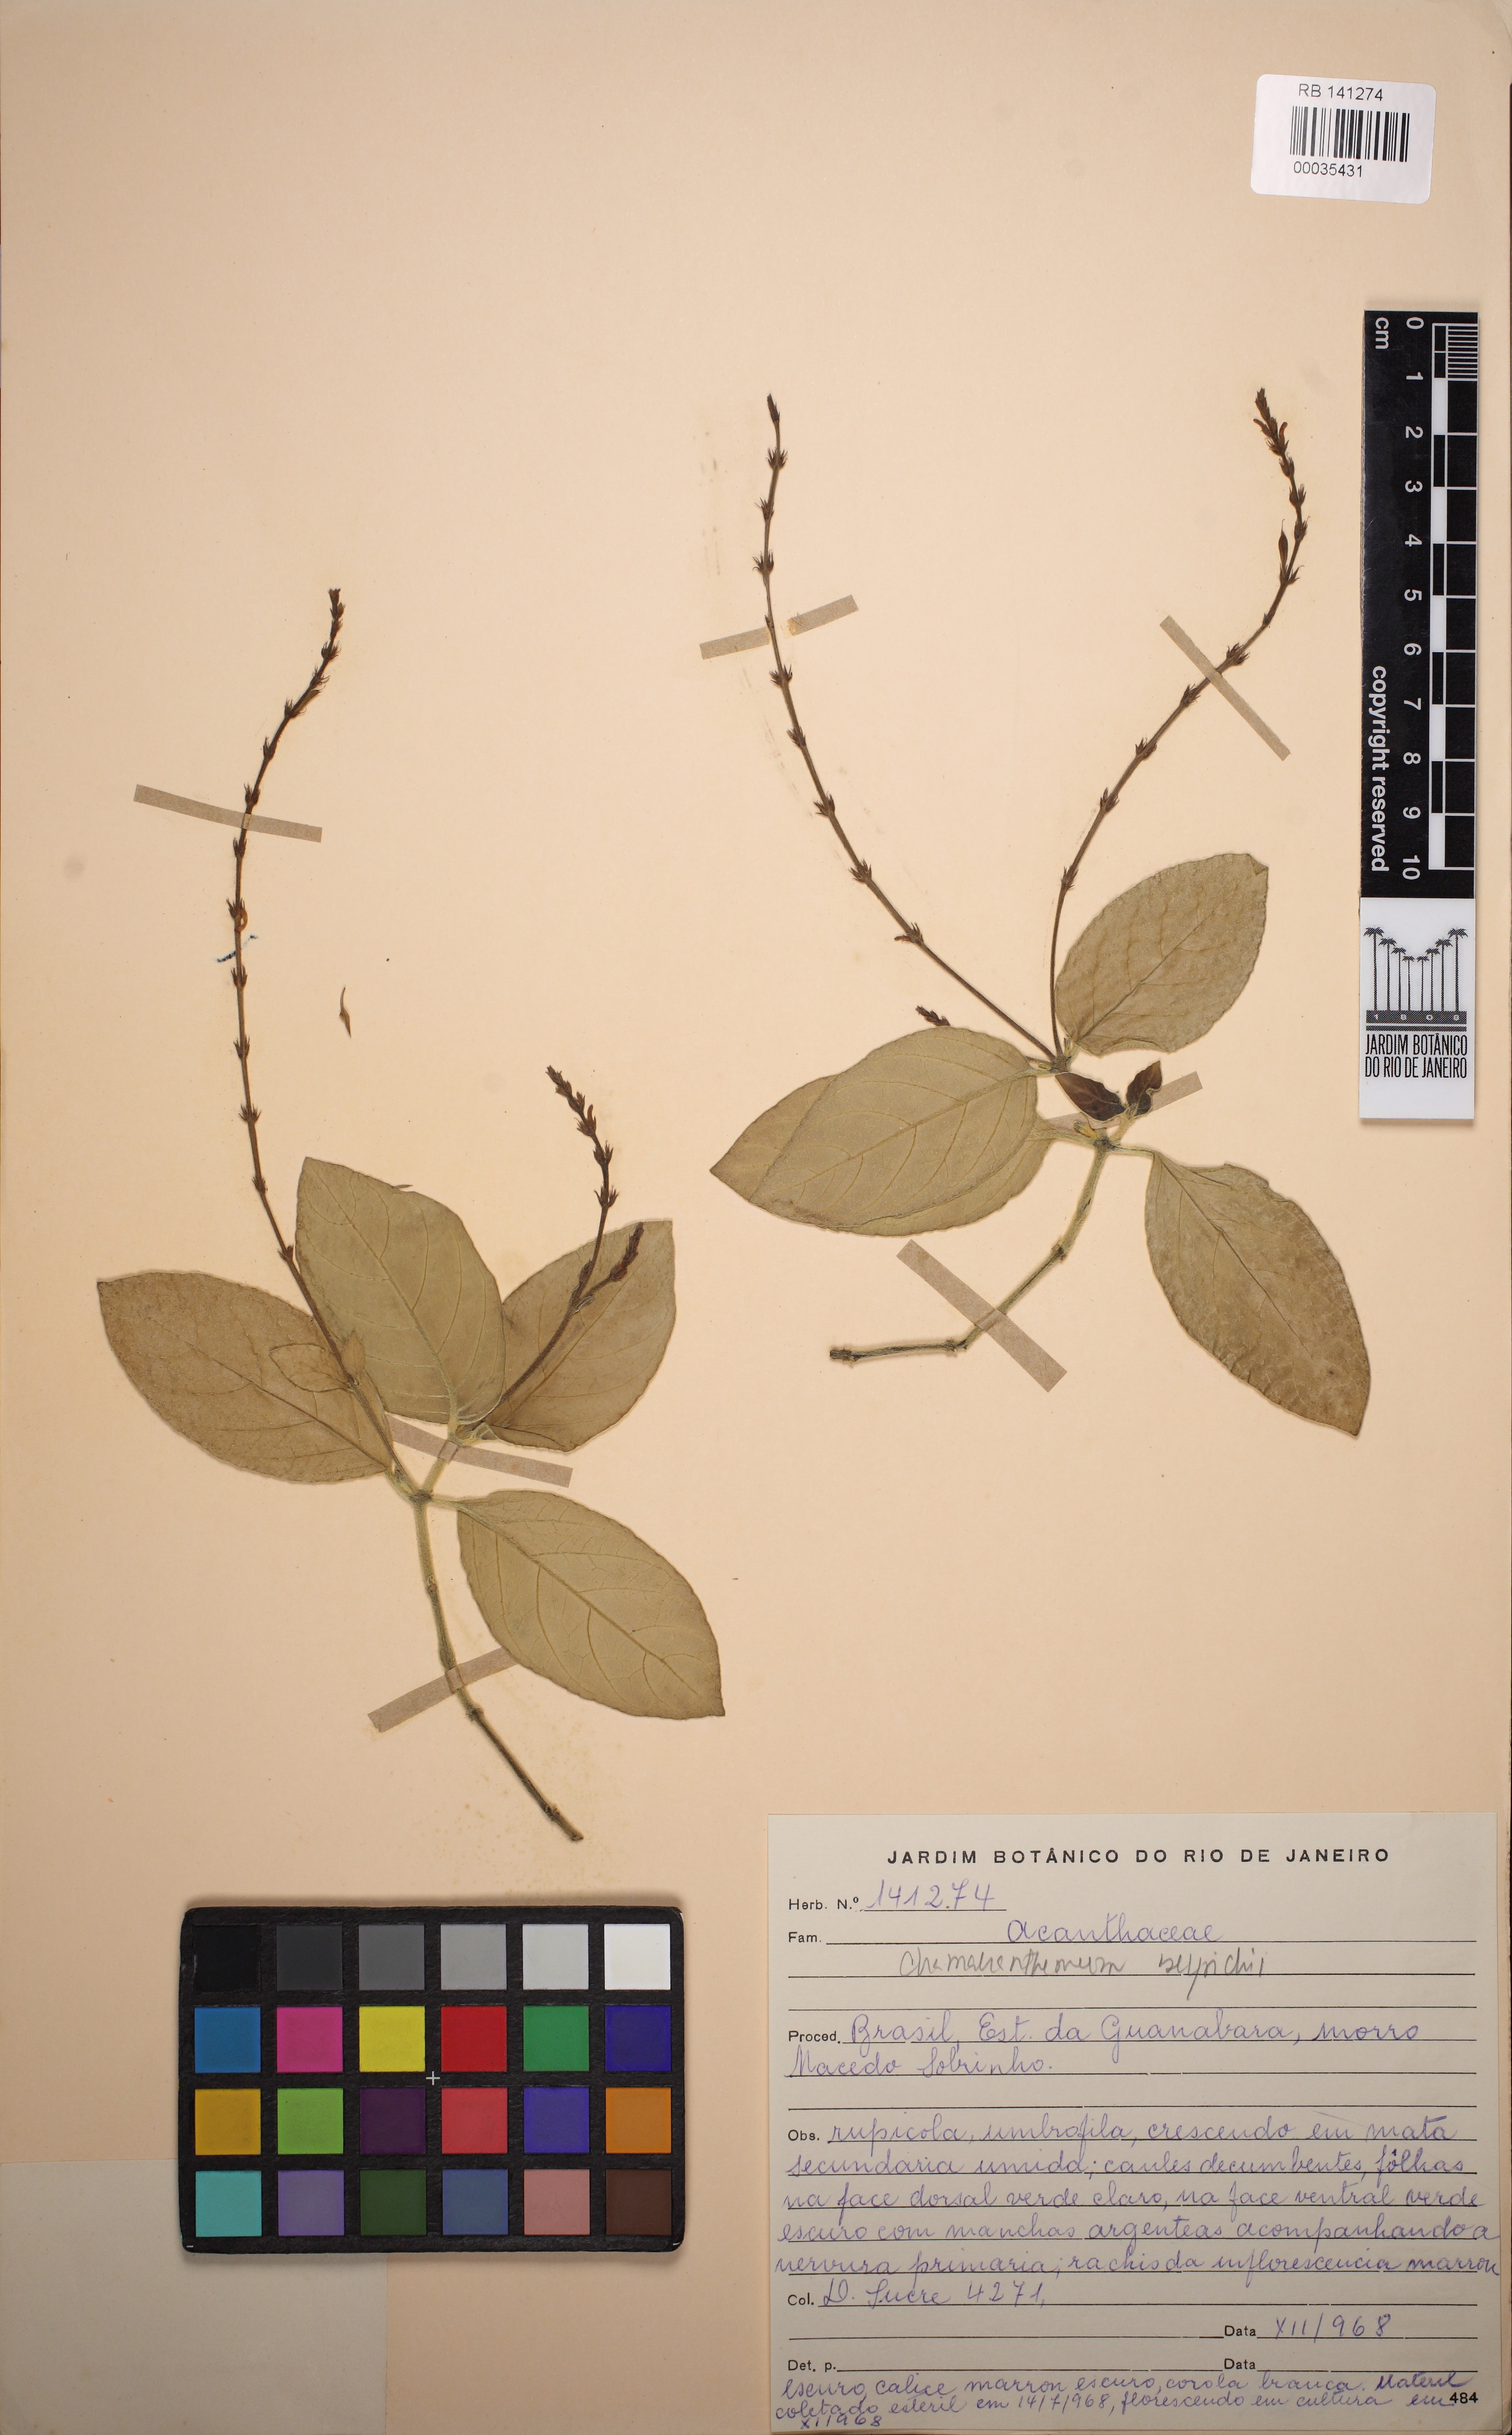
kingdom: Plantae
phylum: Tracheophyta
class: Magnoliopsida
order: Lamiales
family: Acanthaceae
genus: Chamaeranthemum
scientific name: Chamaeranthemum beyrichii
